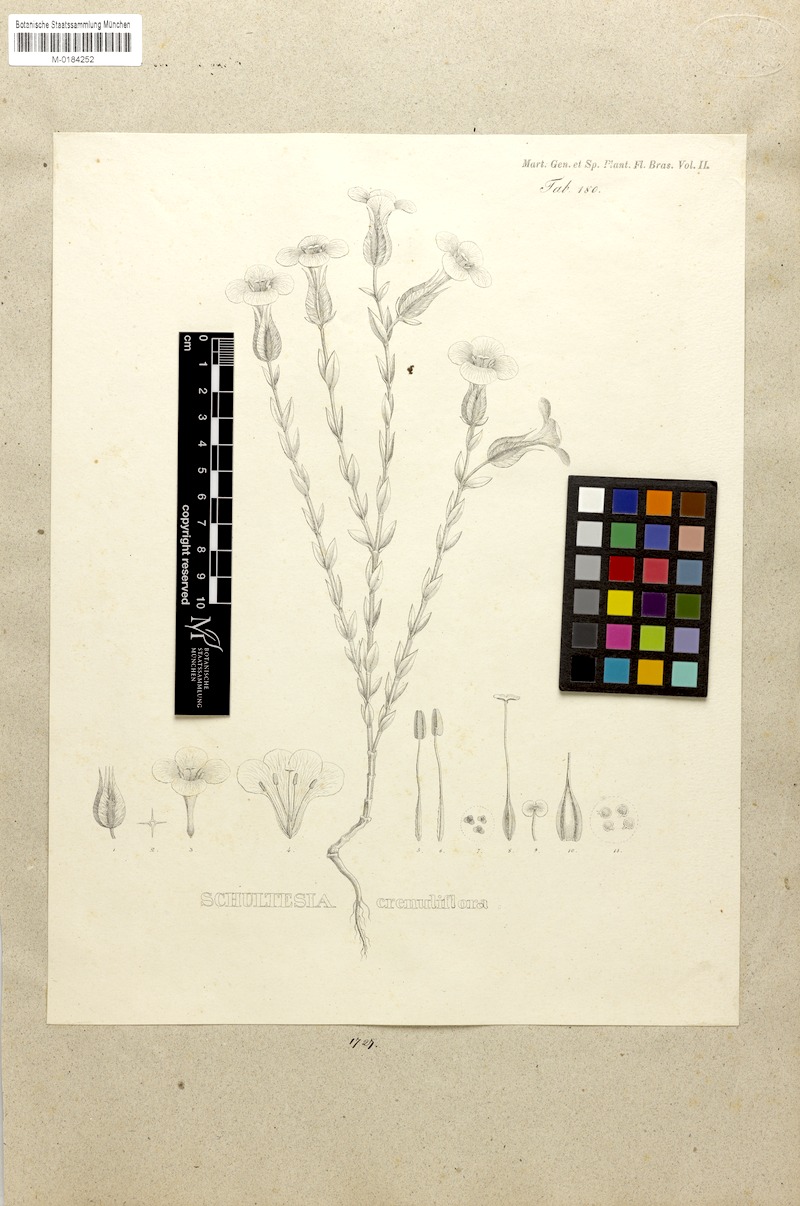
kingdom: Plantae
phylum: Tracheophyta
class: Magnoliopsida
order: Gentianales
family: Gentianaceae
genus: Schultesia
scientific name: Schultesia crenuliflora
